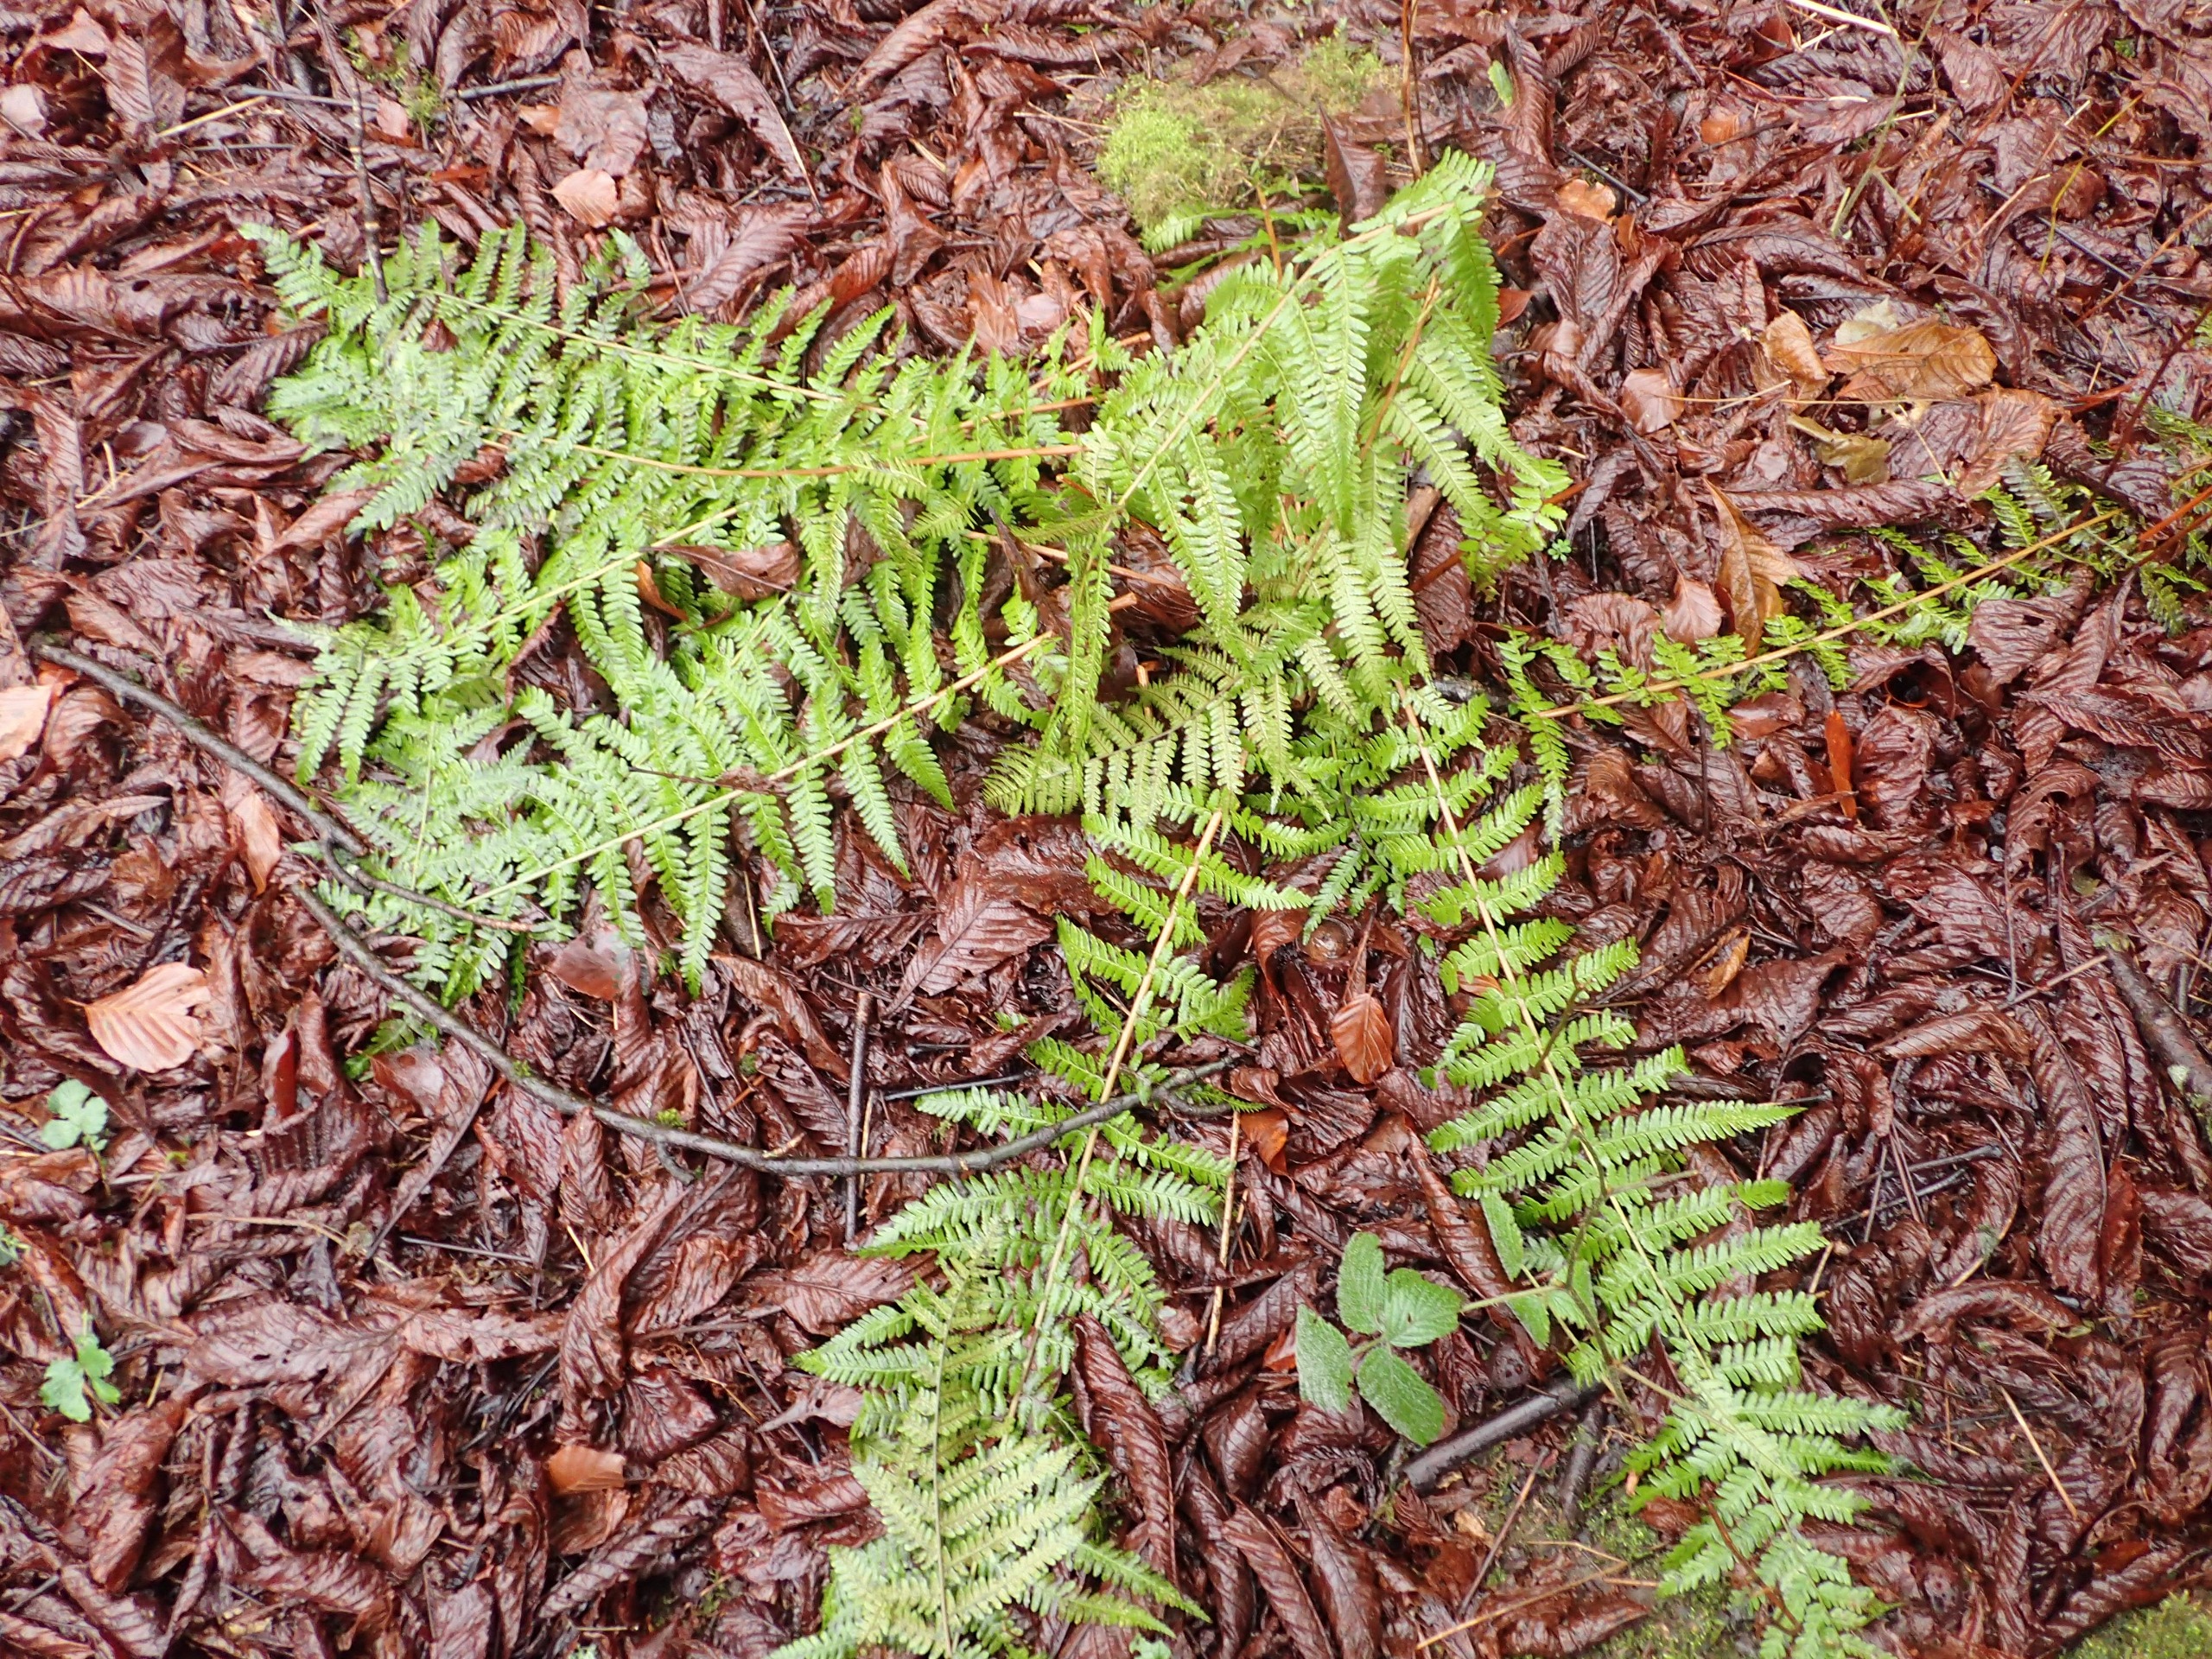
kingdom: Plantae
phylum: Tracheophyta
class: Polypodiopsida
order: Polypodiales
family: Dryopteridaceae
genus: Dryopteris
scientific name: Dryopteris filix-mas
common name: Almindelig mangeløv
